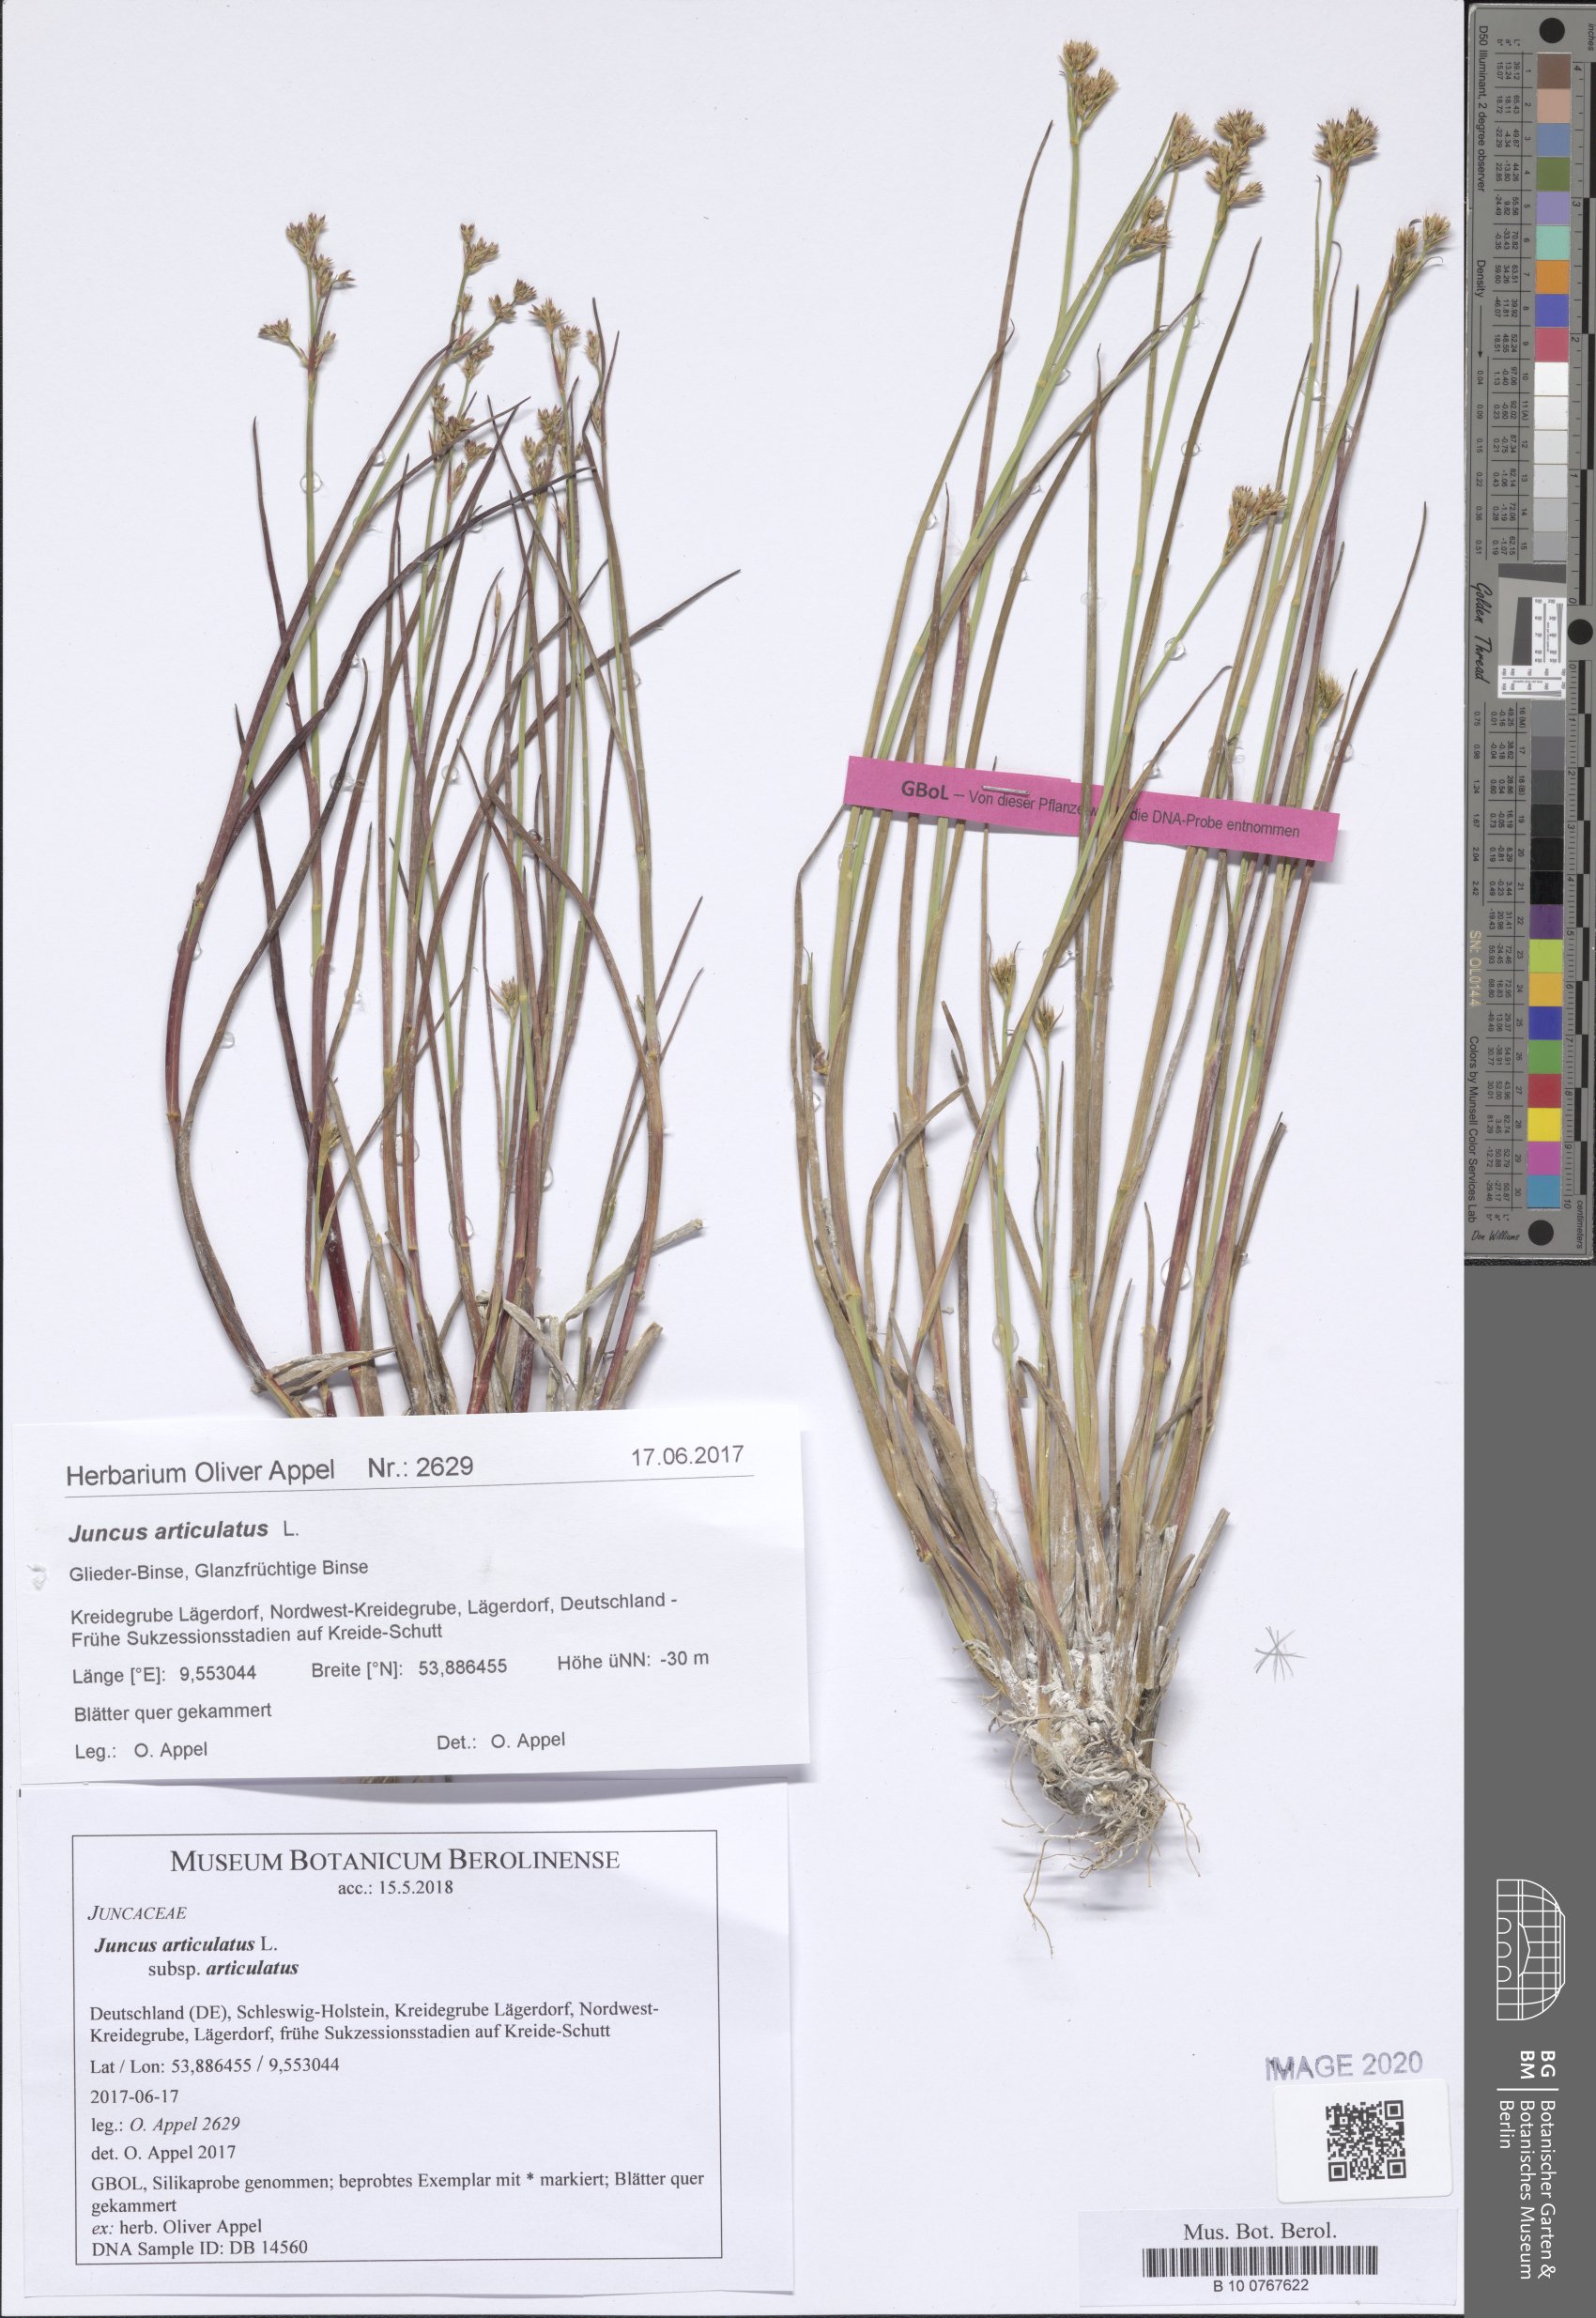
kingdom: Plantae
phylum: Tracheophyta
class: Liliopsida
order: Poales
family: Juncaceae
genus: Juncus
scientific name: Juncus articulatus
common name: Jointed rush
